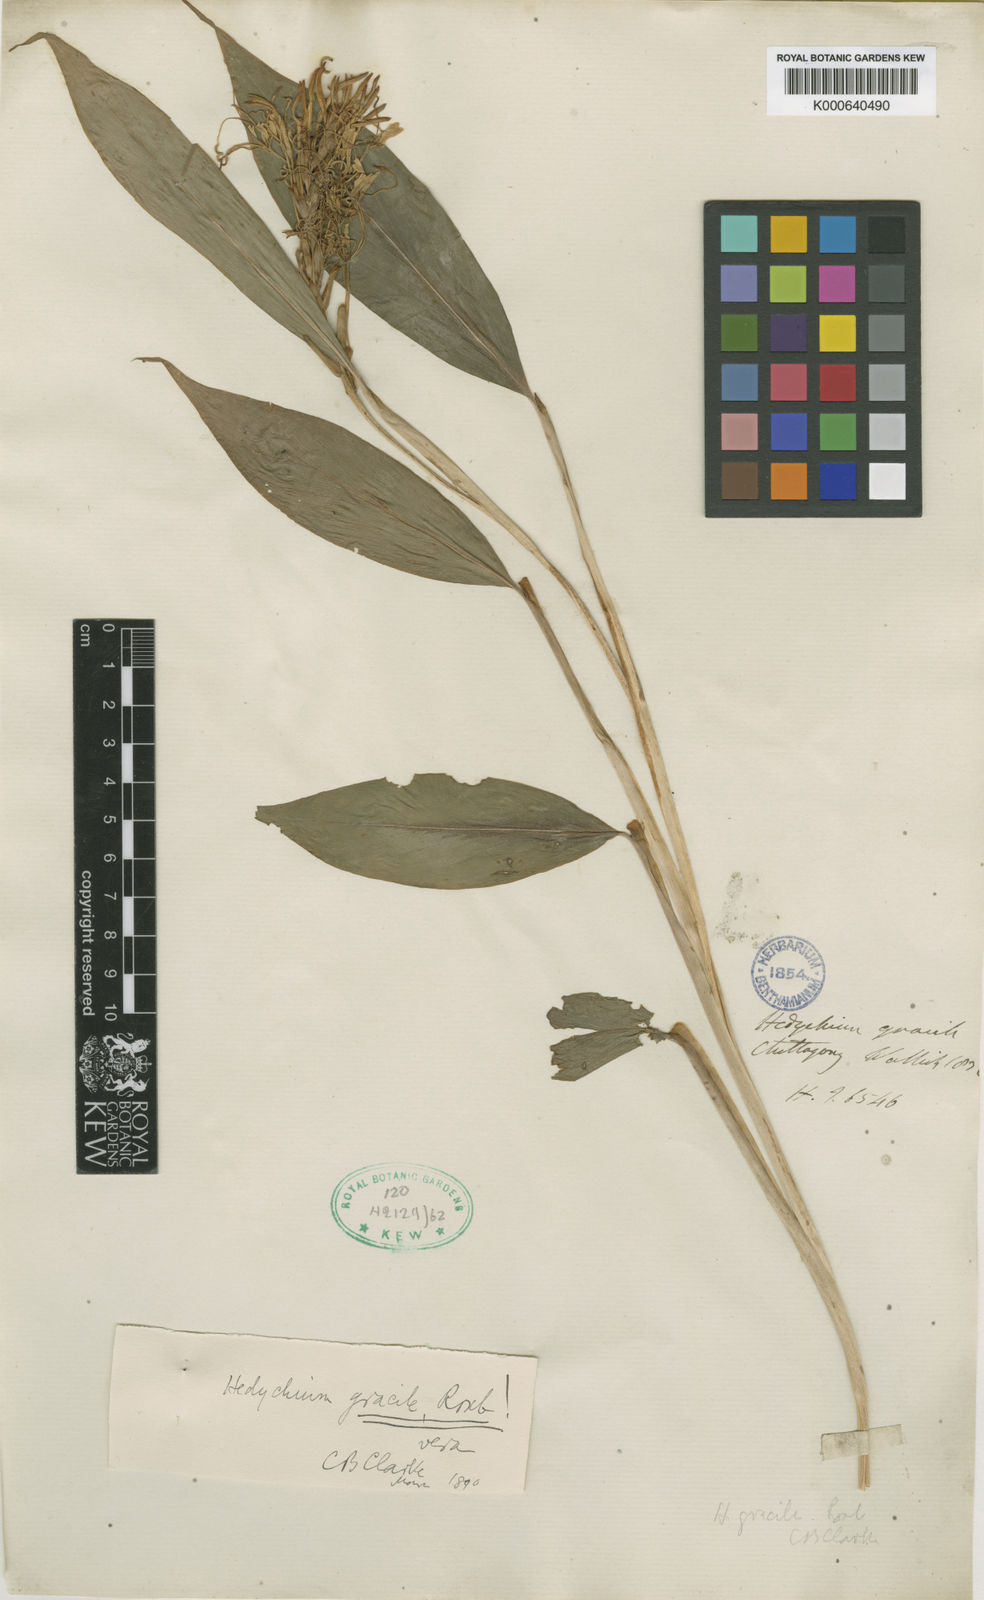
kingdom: Plantae
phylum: Tracheophyta
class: Liliopsida
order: Zingiberales
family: Zingiberaceae
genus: Hedychium
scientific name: Hedychium gracile
